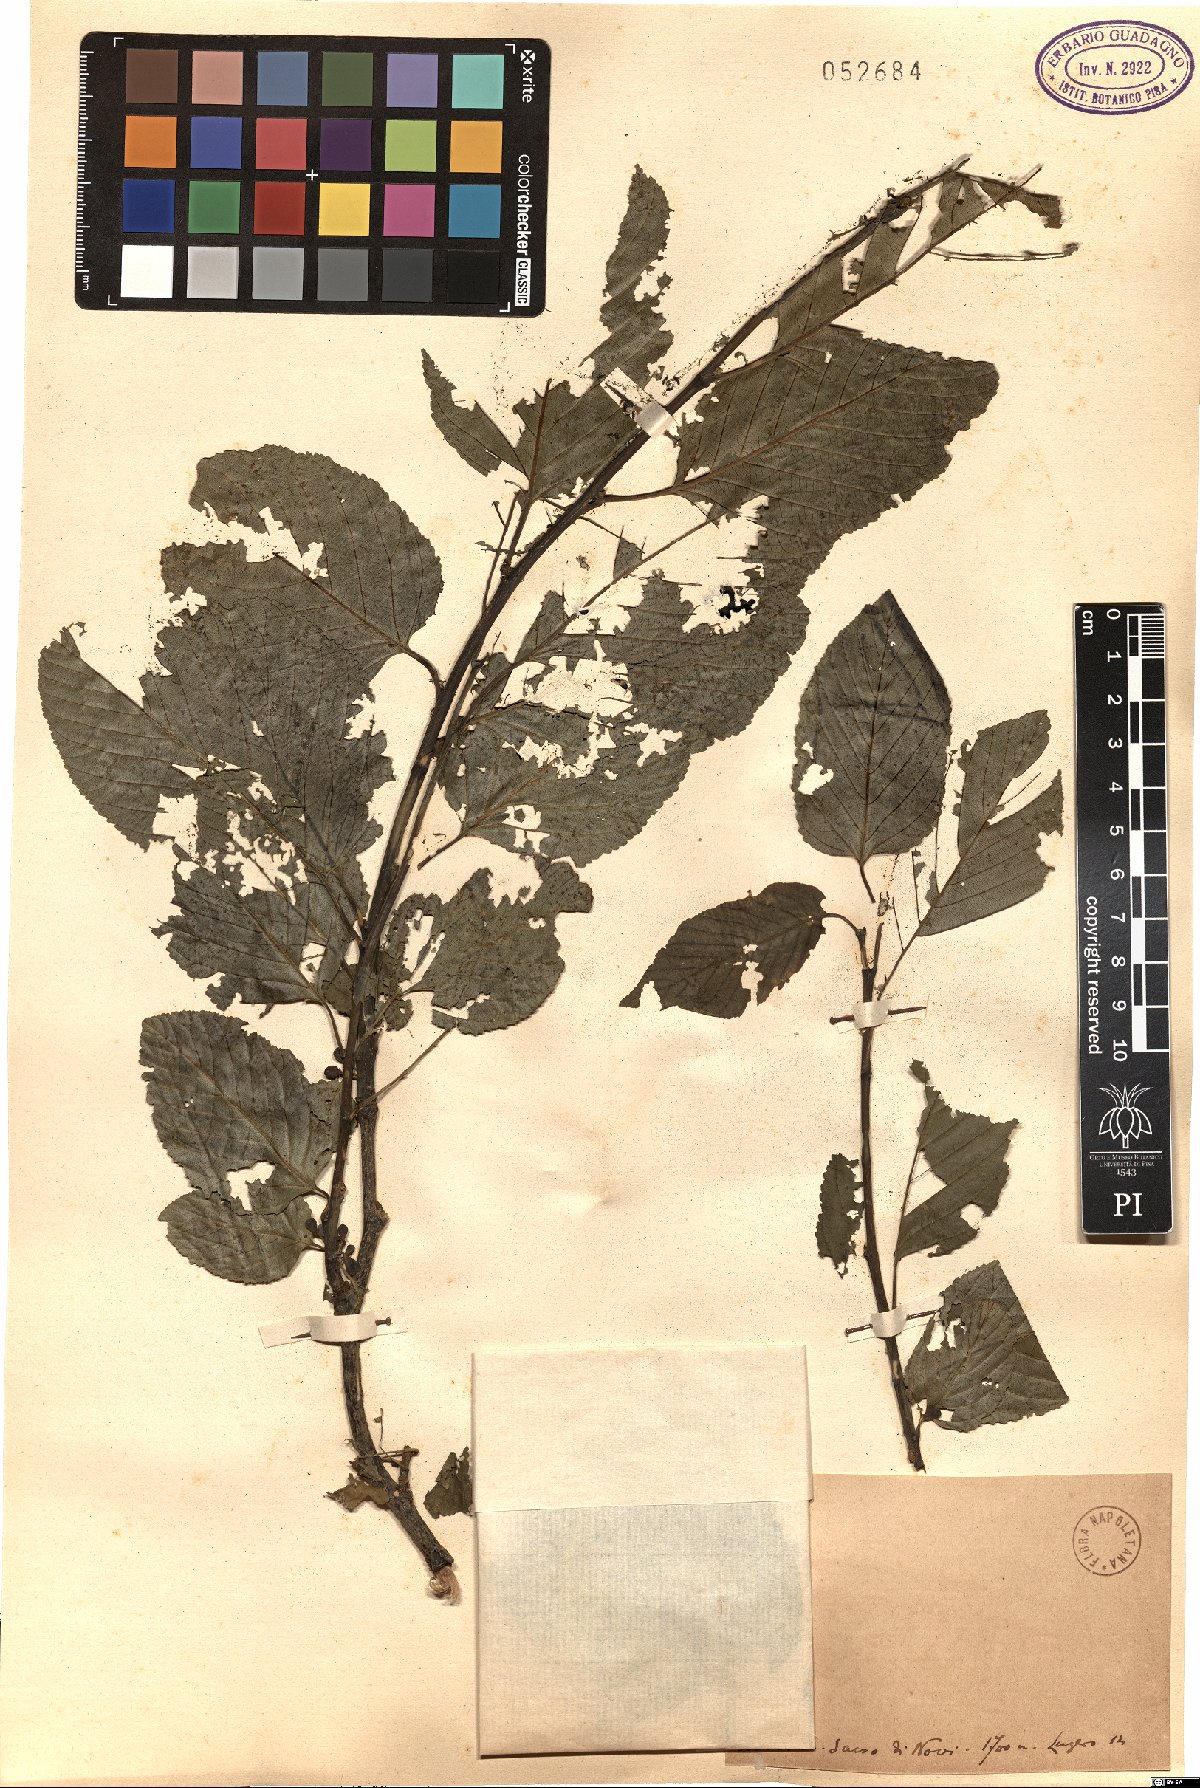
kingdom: Plantae
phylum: Tracheophyta
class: Magnoliopsida
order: Rosales
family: Rhamnaceae
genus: Rhamnus
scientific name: Rhamnus
